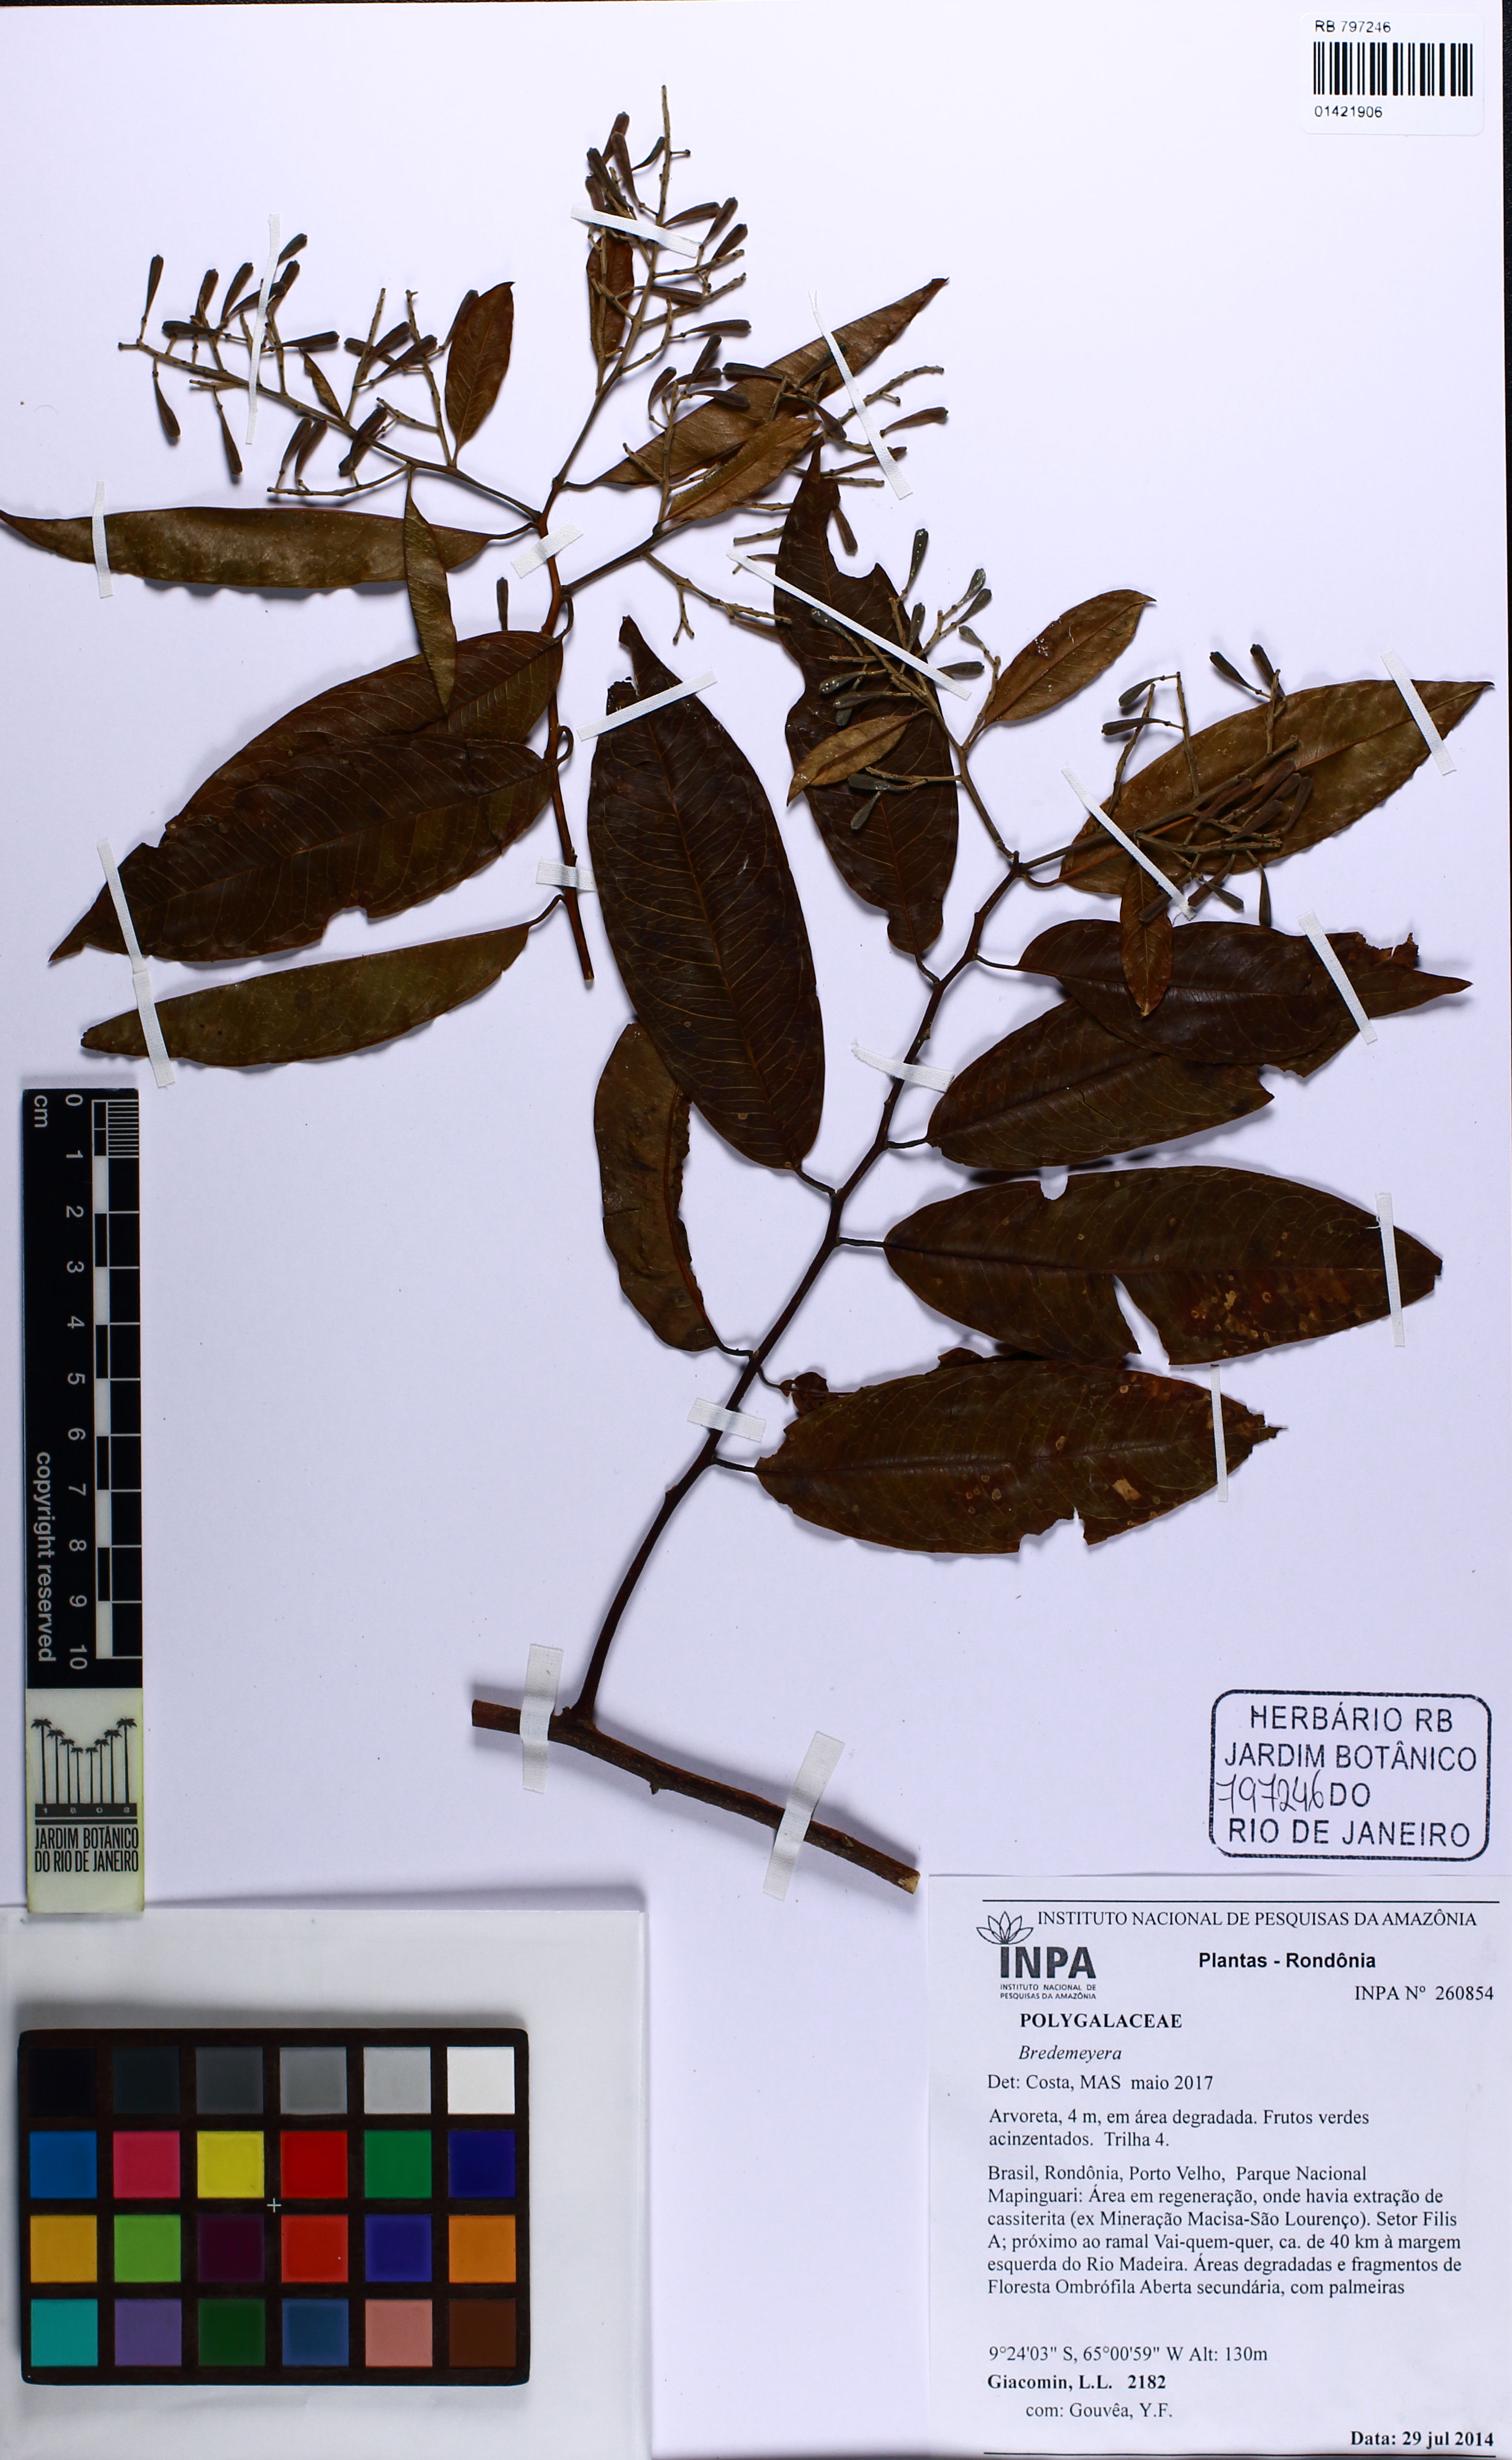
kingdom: Plantae
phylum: Tracheophyta
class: Magnoliopsida
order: Fabales
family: Polygalaceae
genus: Bredemeyera
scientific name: Bredemeyera
